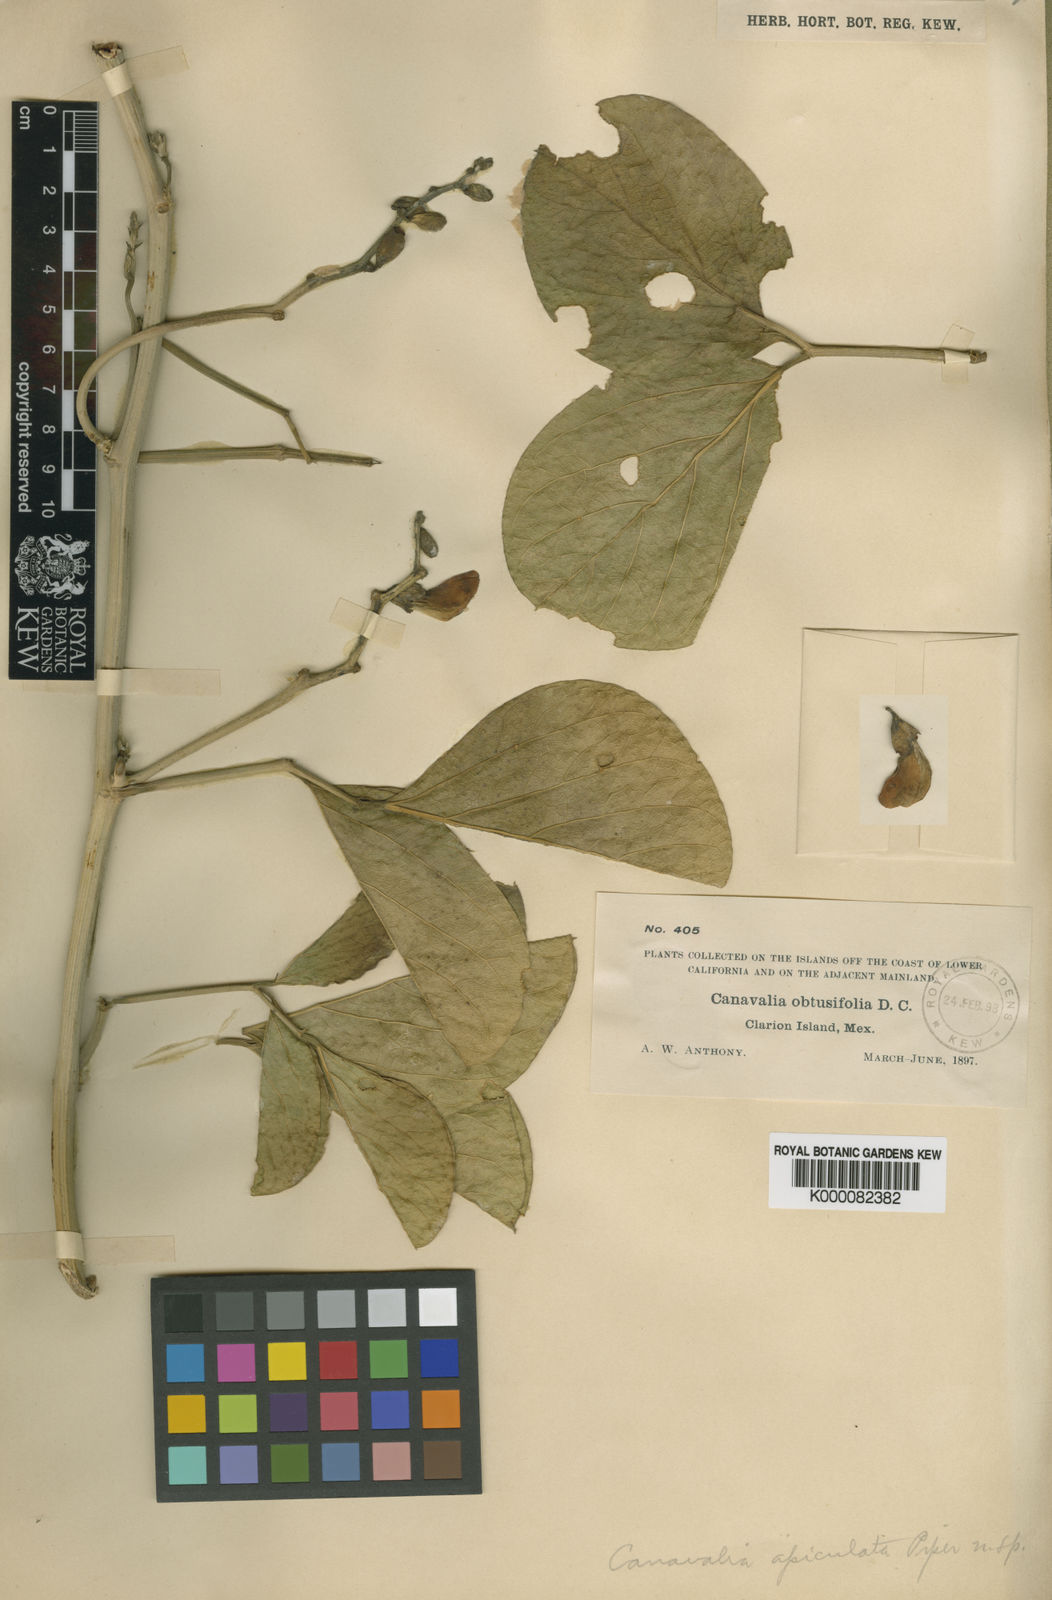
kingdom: Plantae
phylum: Tracheophyta
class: Magnoliopsida
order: Fabales
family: Fabaceae
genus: Canavalia
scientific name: Canavalia rosea
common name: Beach-bean
